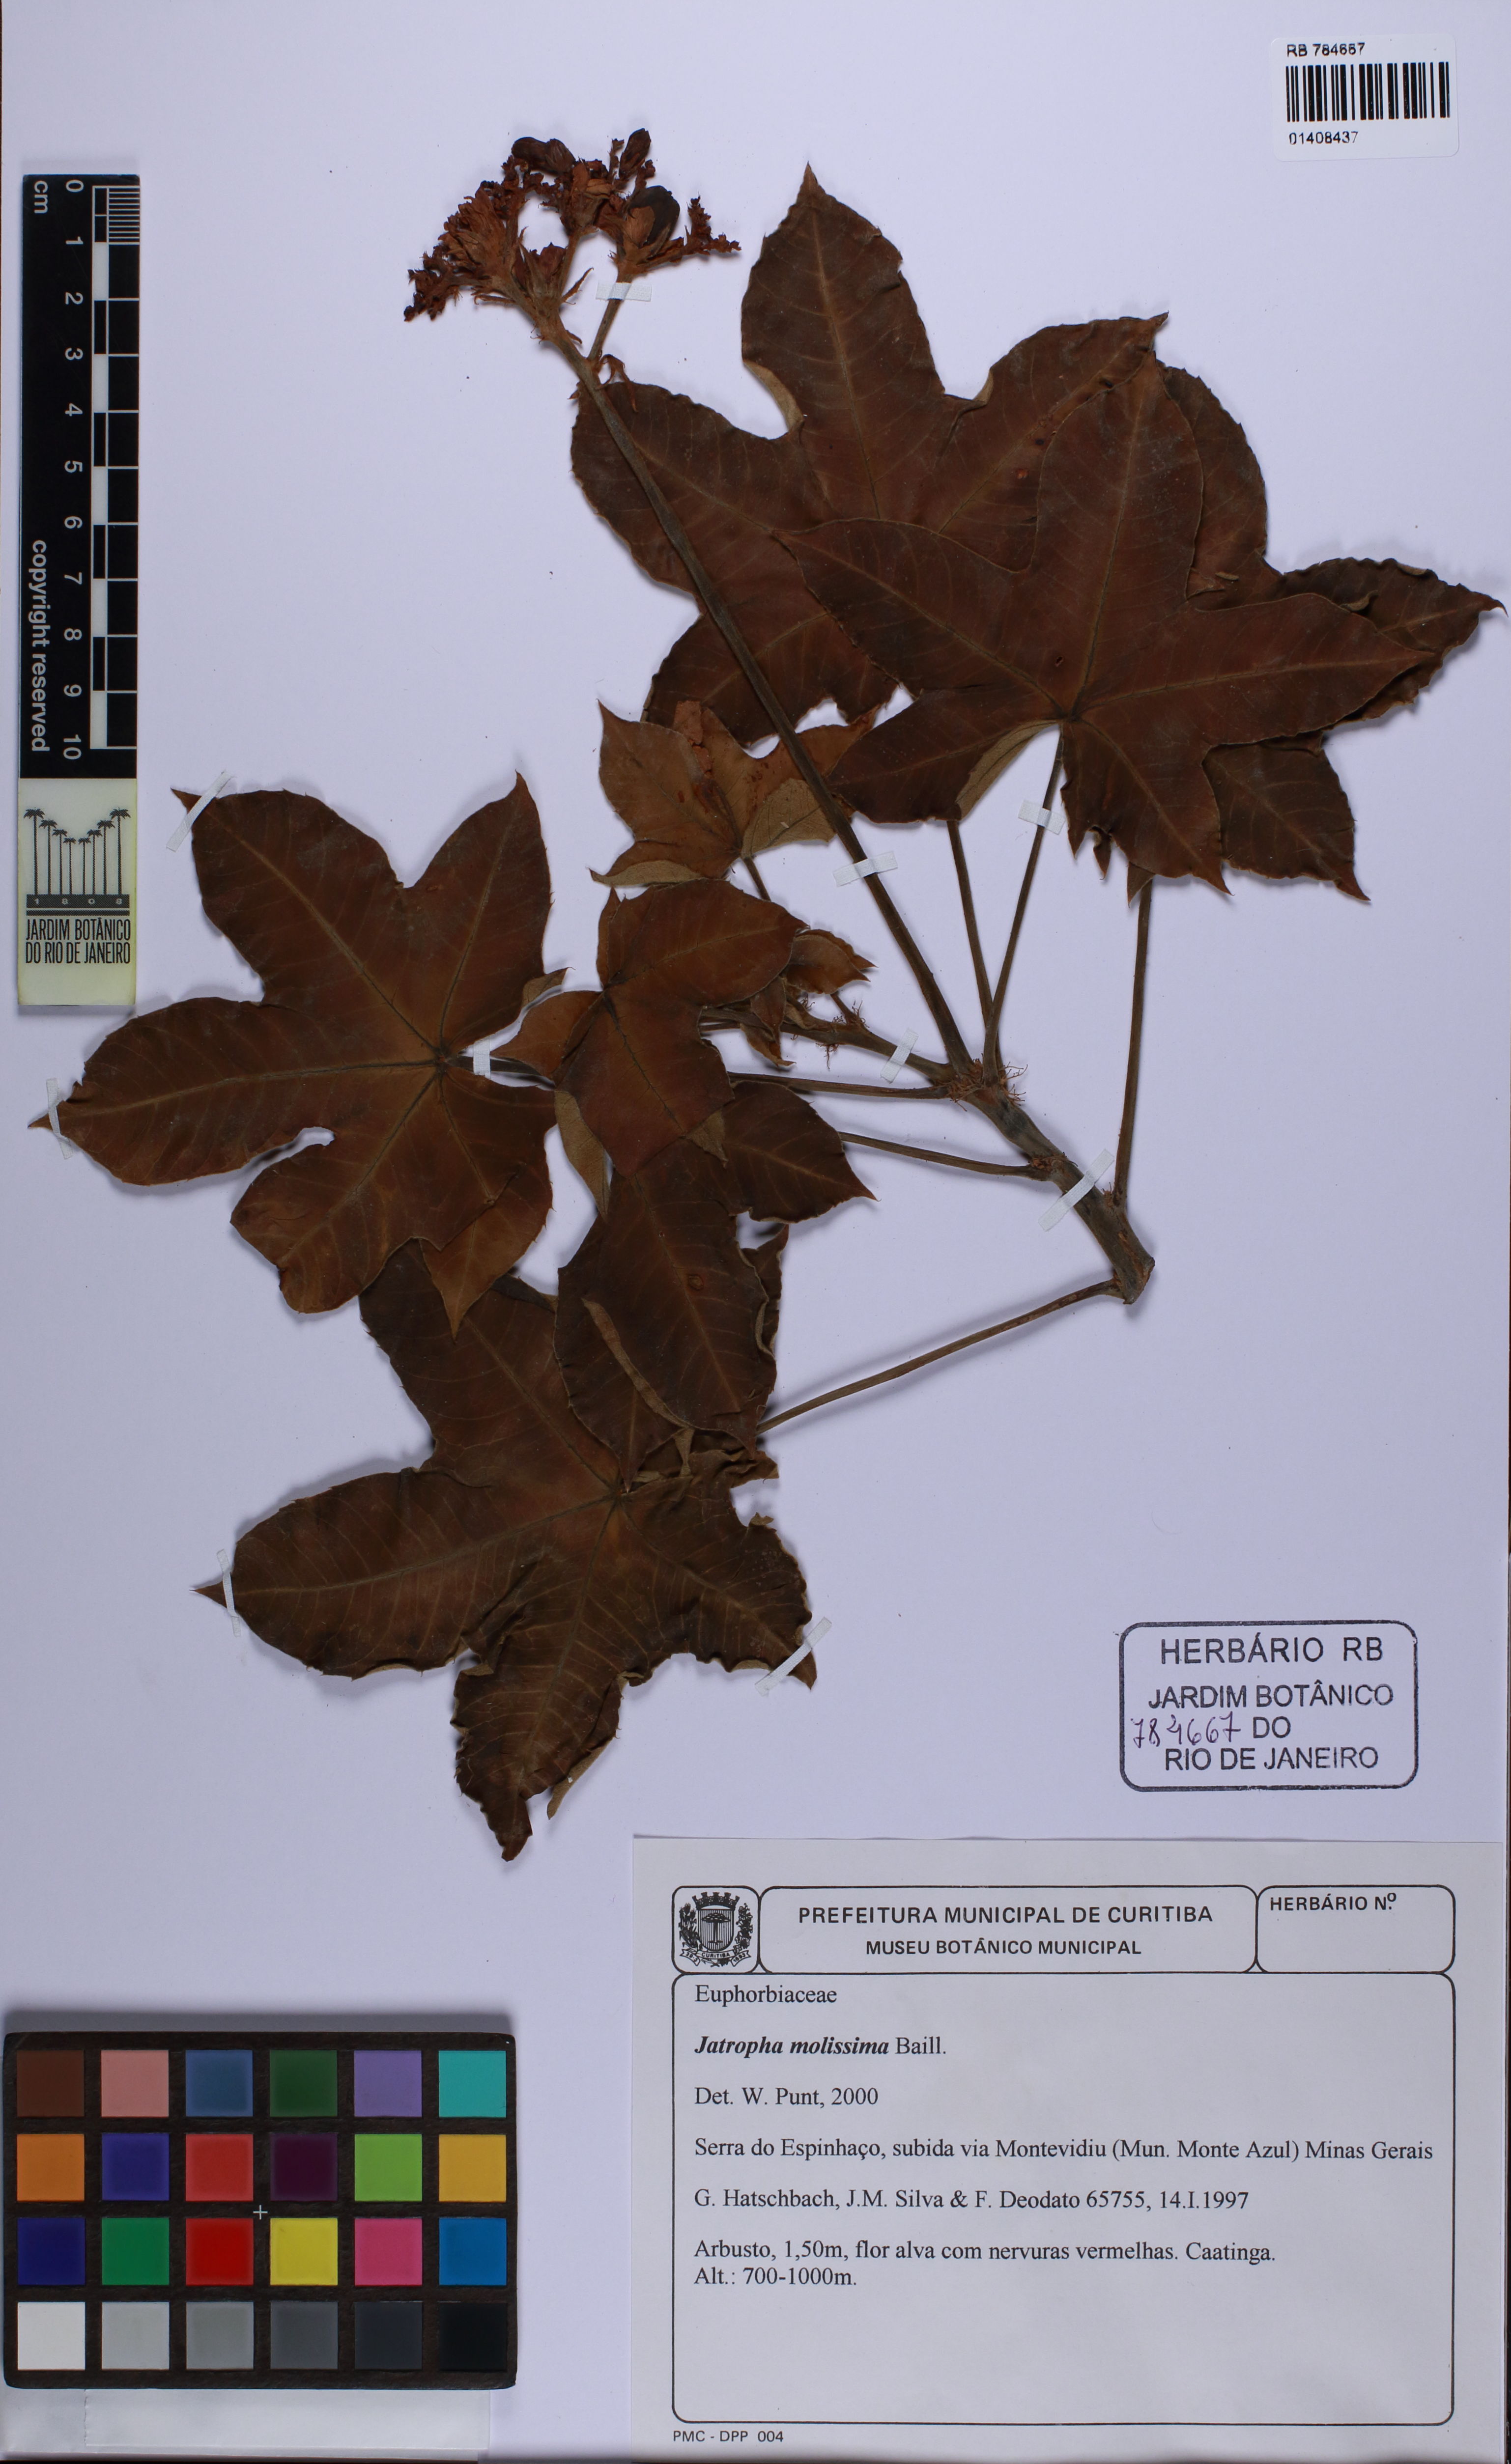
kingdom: Plantae
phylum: Tracheophyta
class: Magnoliopsida
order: Malpighiales
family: Euphorbiaceae
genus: Jatropha
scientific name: Jatropha mollissima
